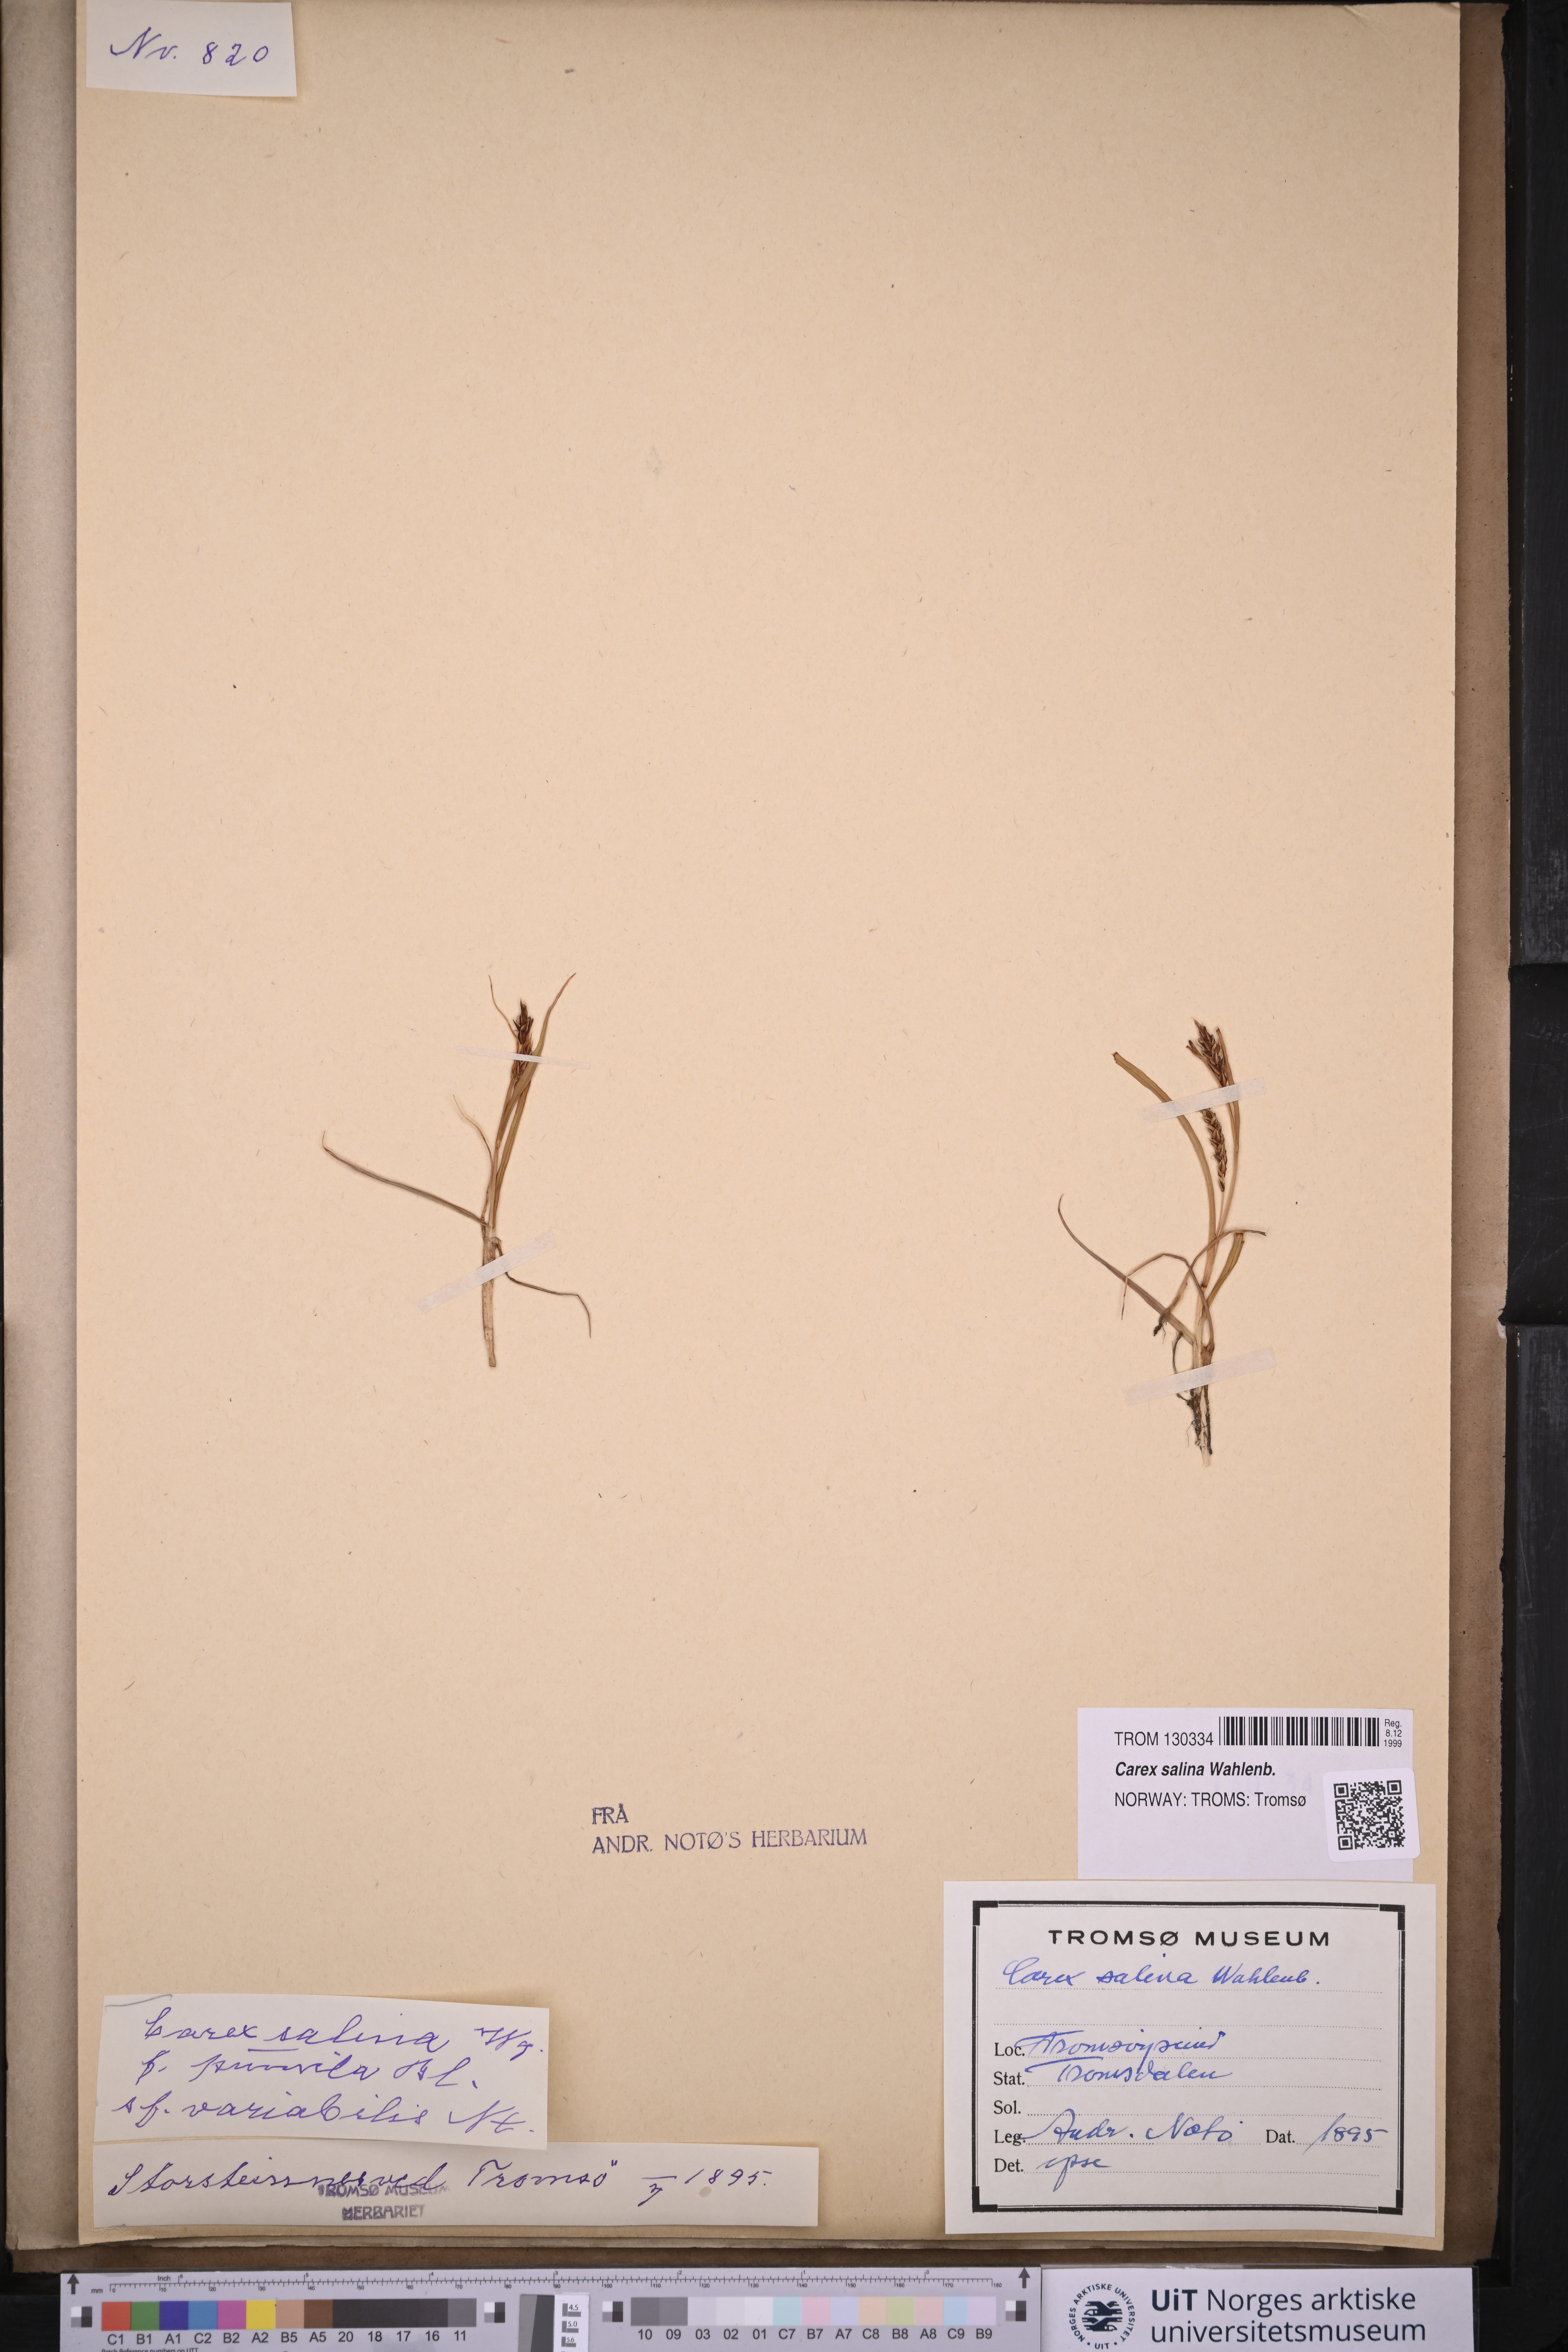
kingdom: Plantae
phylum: Tracheophyta
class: Liliopsida
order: Poales
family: Cyperaceae
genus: Carex
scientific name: Carex salina
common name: Saltmarsh sedge
